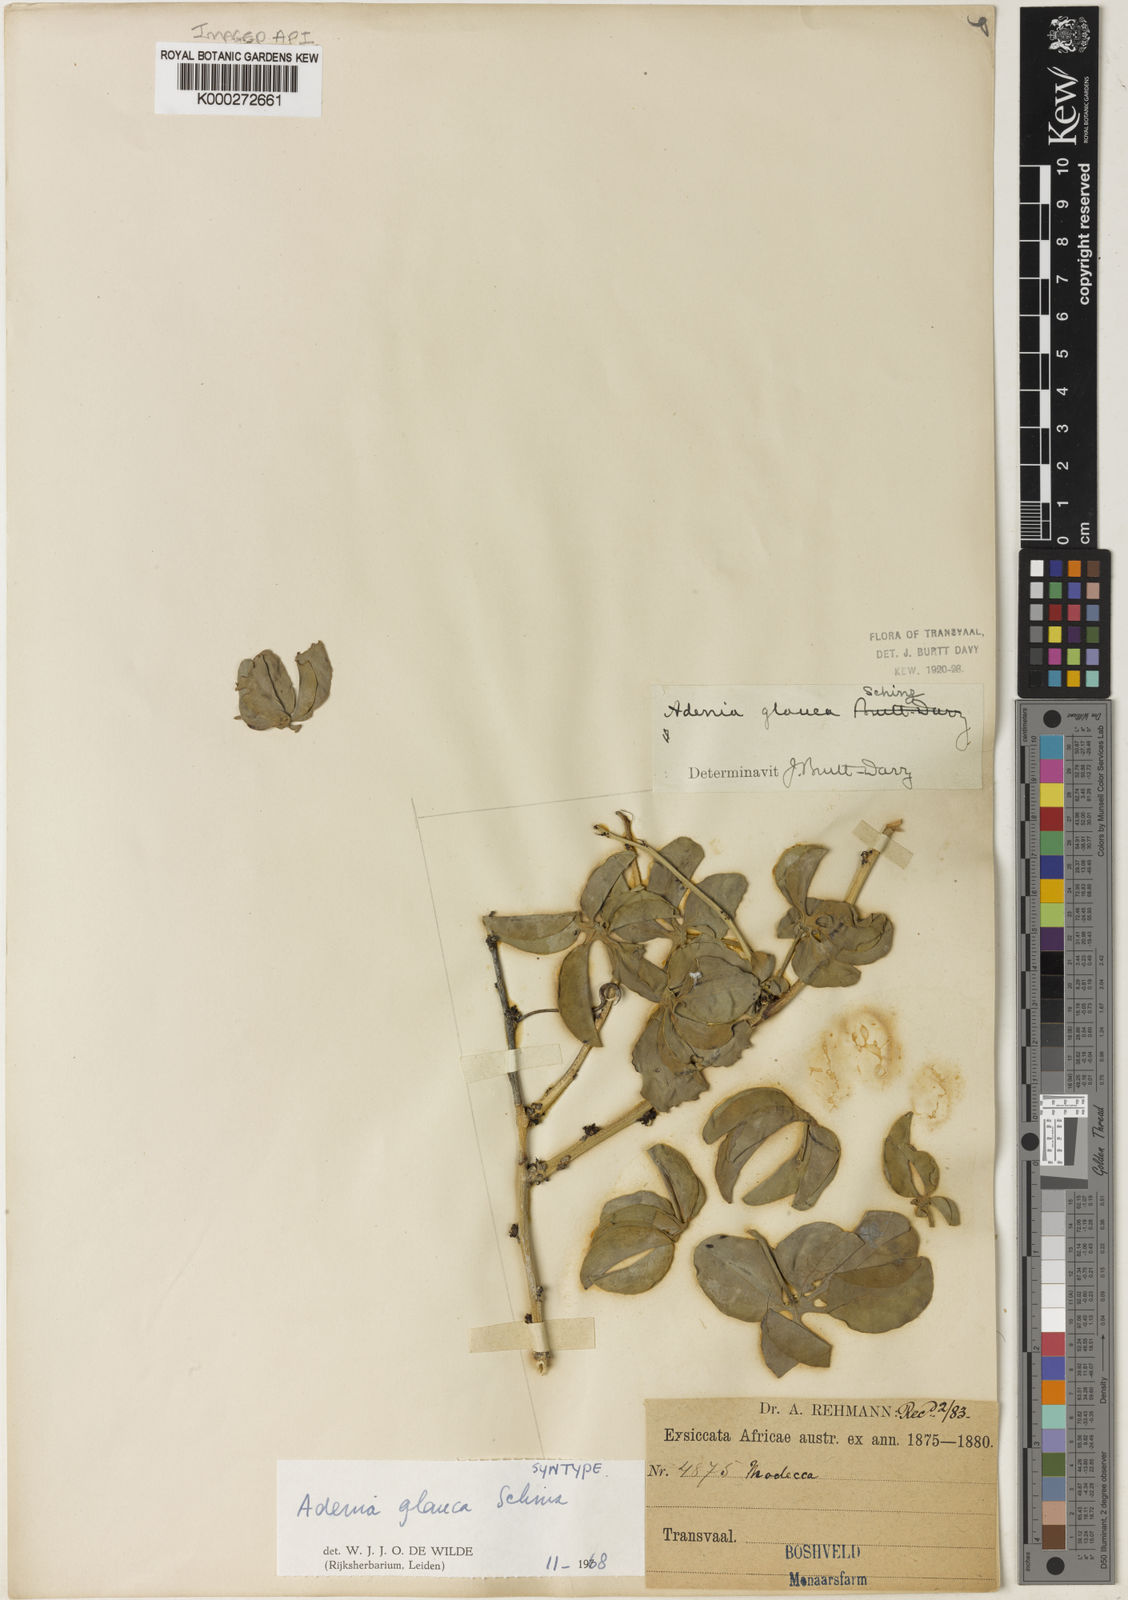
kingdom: Plantae
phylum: Tracheophyta
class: Magnoliopsida
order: Malpighiales
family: Passifloraceae
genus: Adenia
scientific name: Adenia glauca
